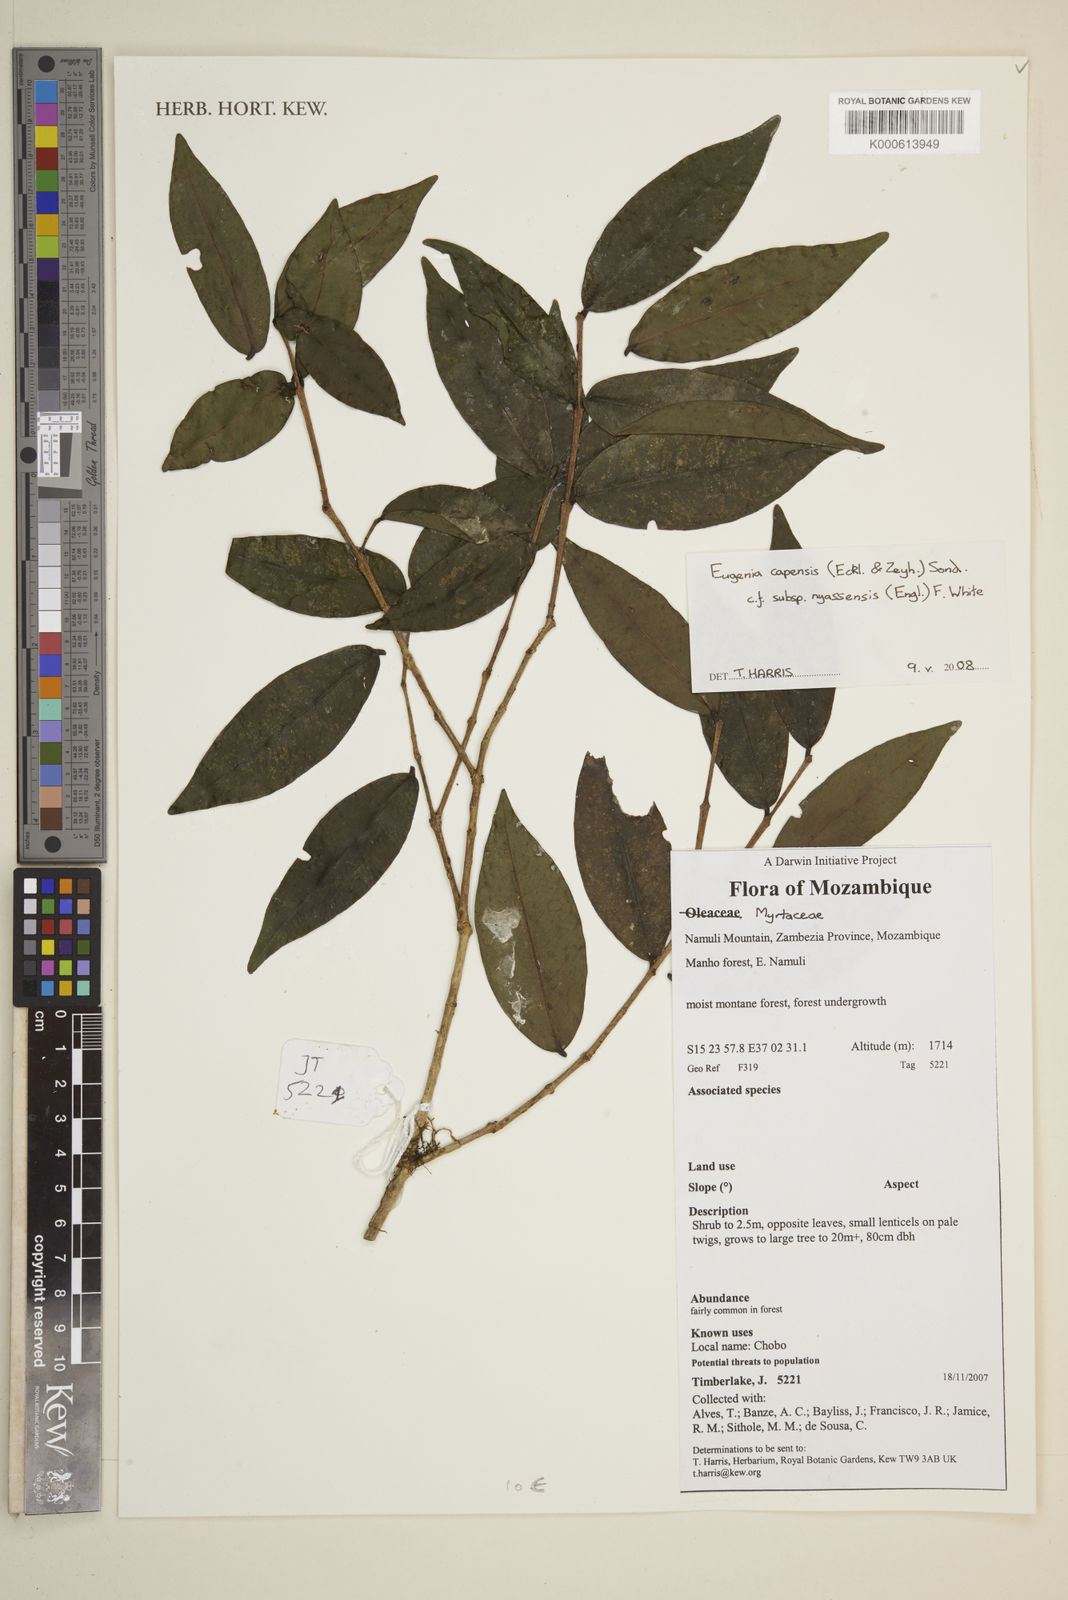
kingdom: Plantae
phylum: Tracheophyta
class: Magnoliopsida
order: Myrtales
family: Myrtaceae
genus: Eugenia
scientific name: Eugenia capensis
